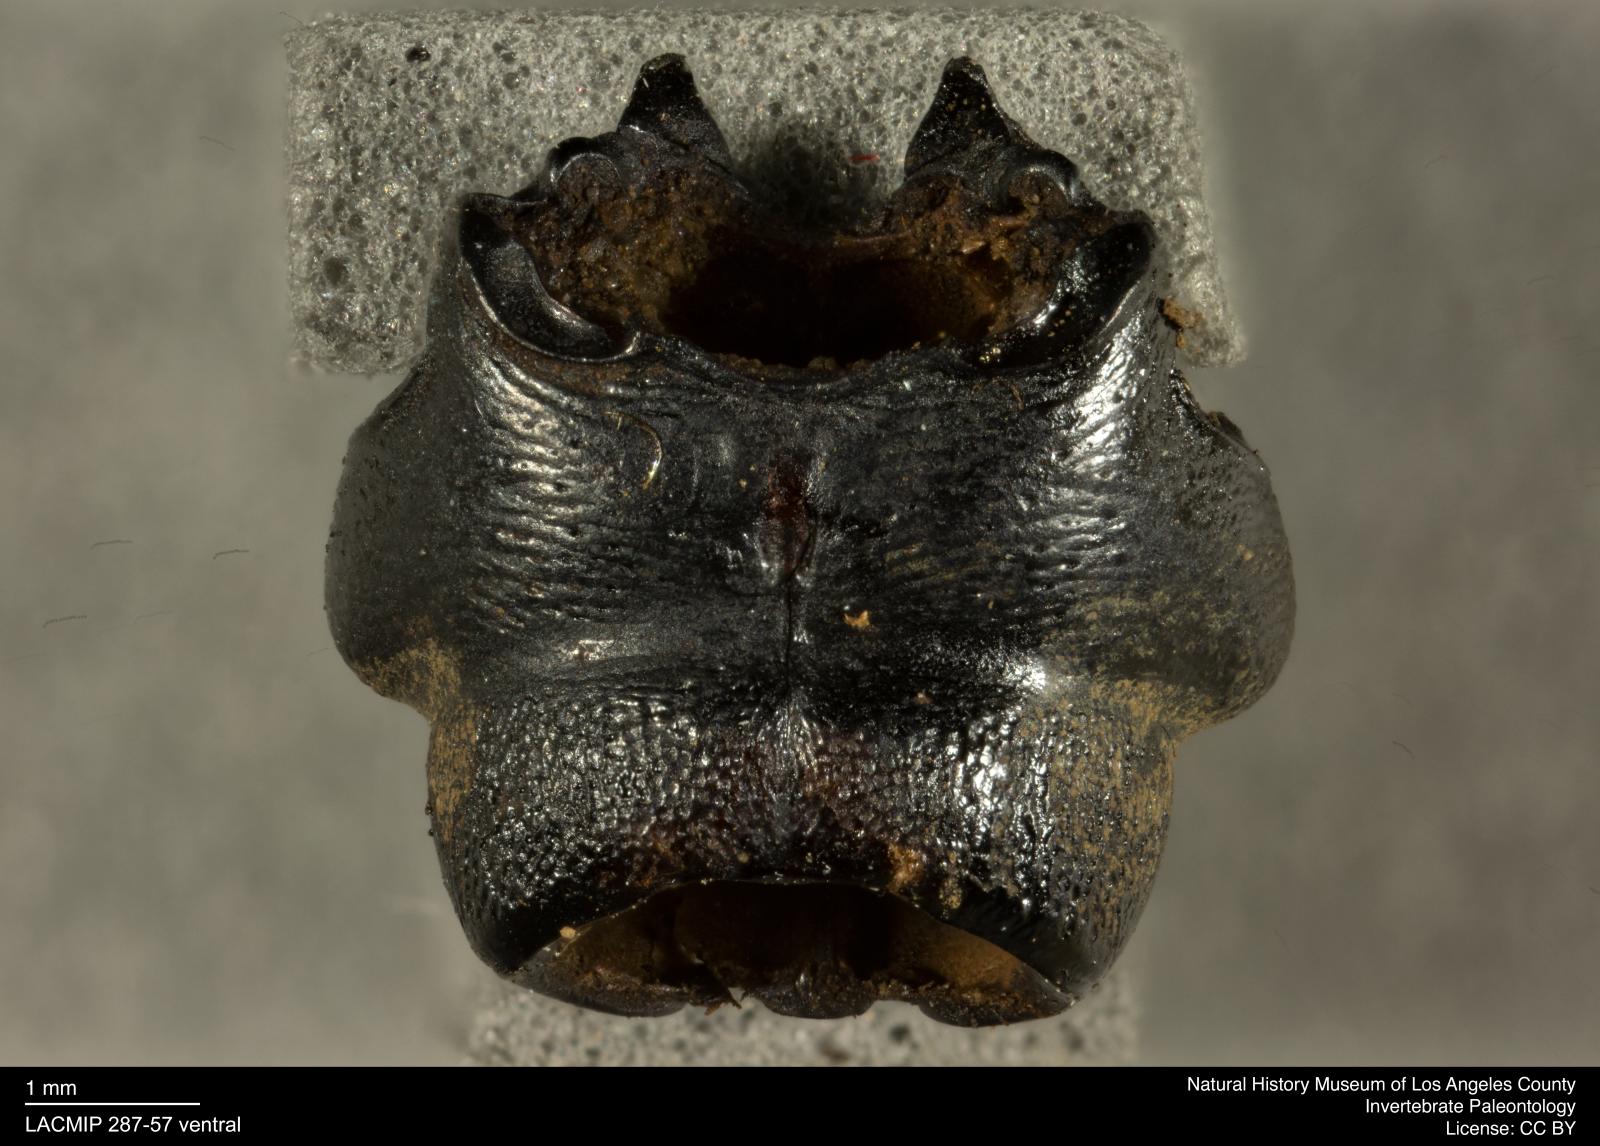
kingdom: Animalia
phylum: Arthropoda
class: Insecta
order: Coleoptera
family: Staphylinidae
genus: Nicrophorus
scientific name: Nicrophorus marginatus
